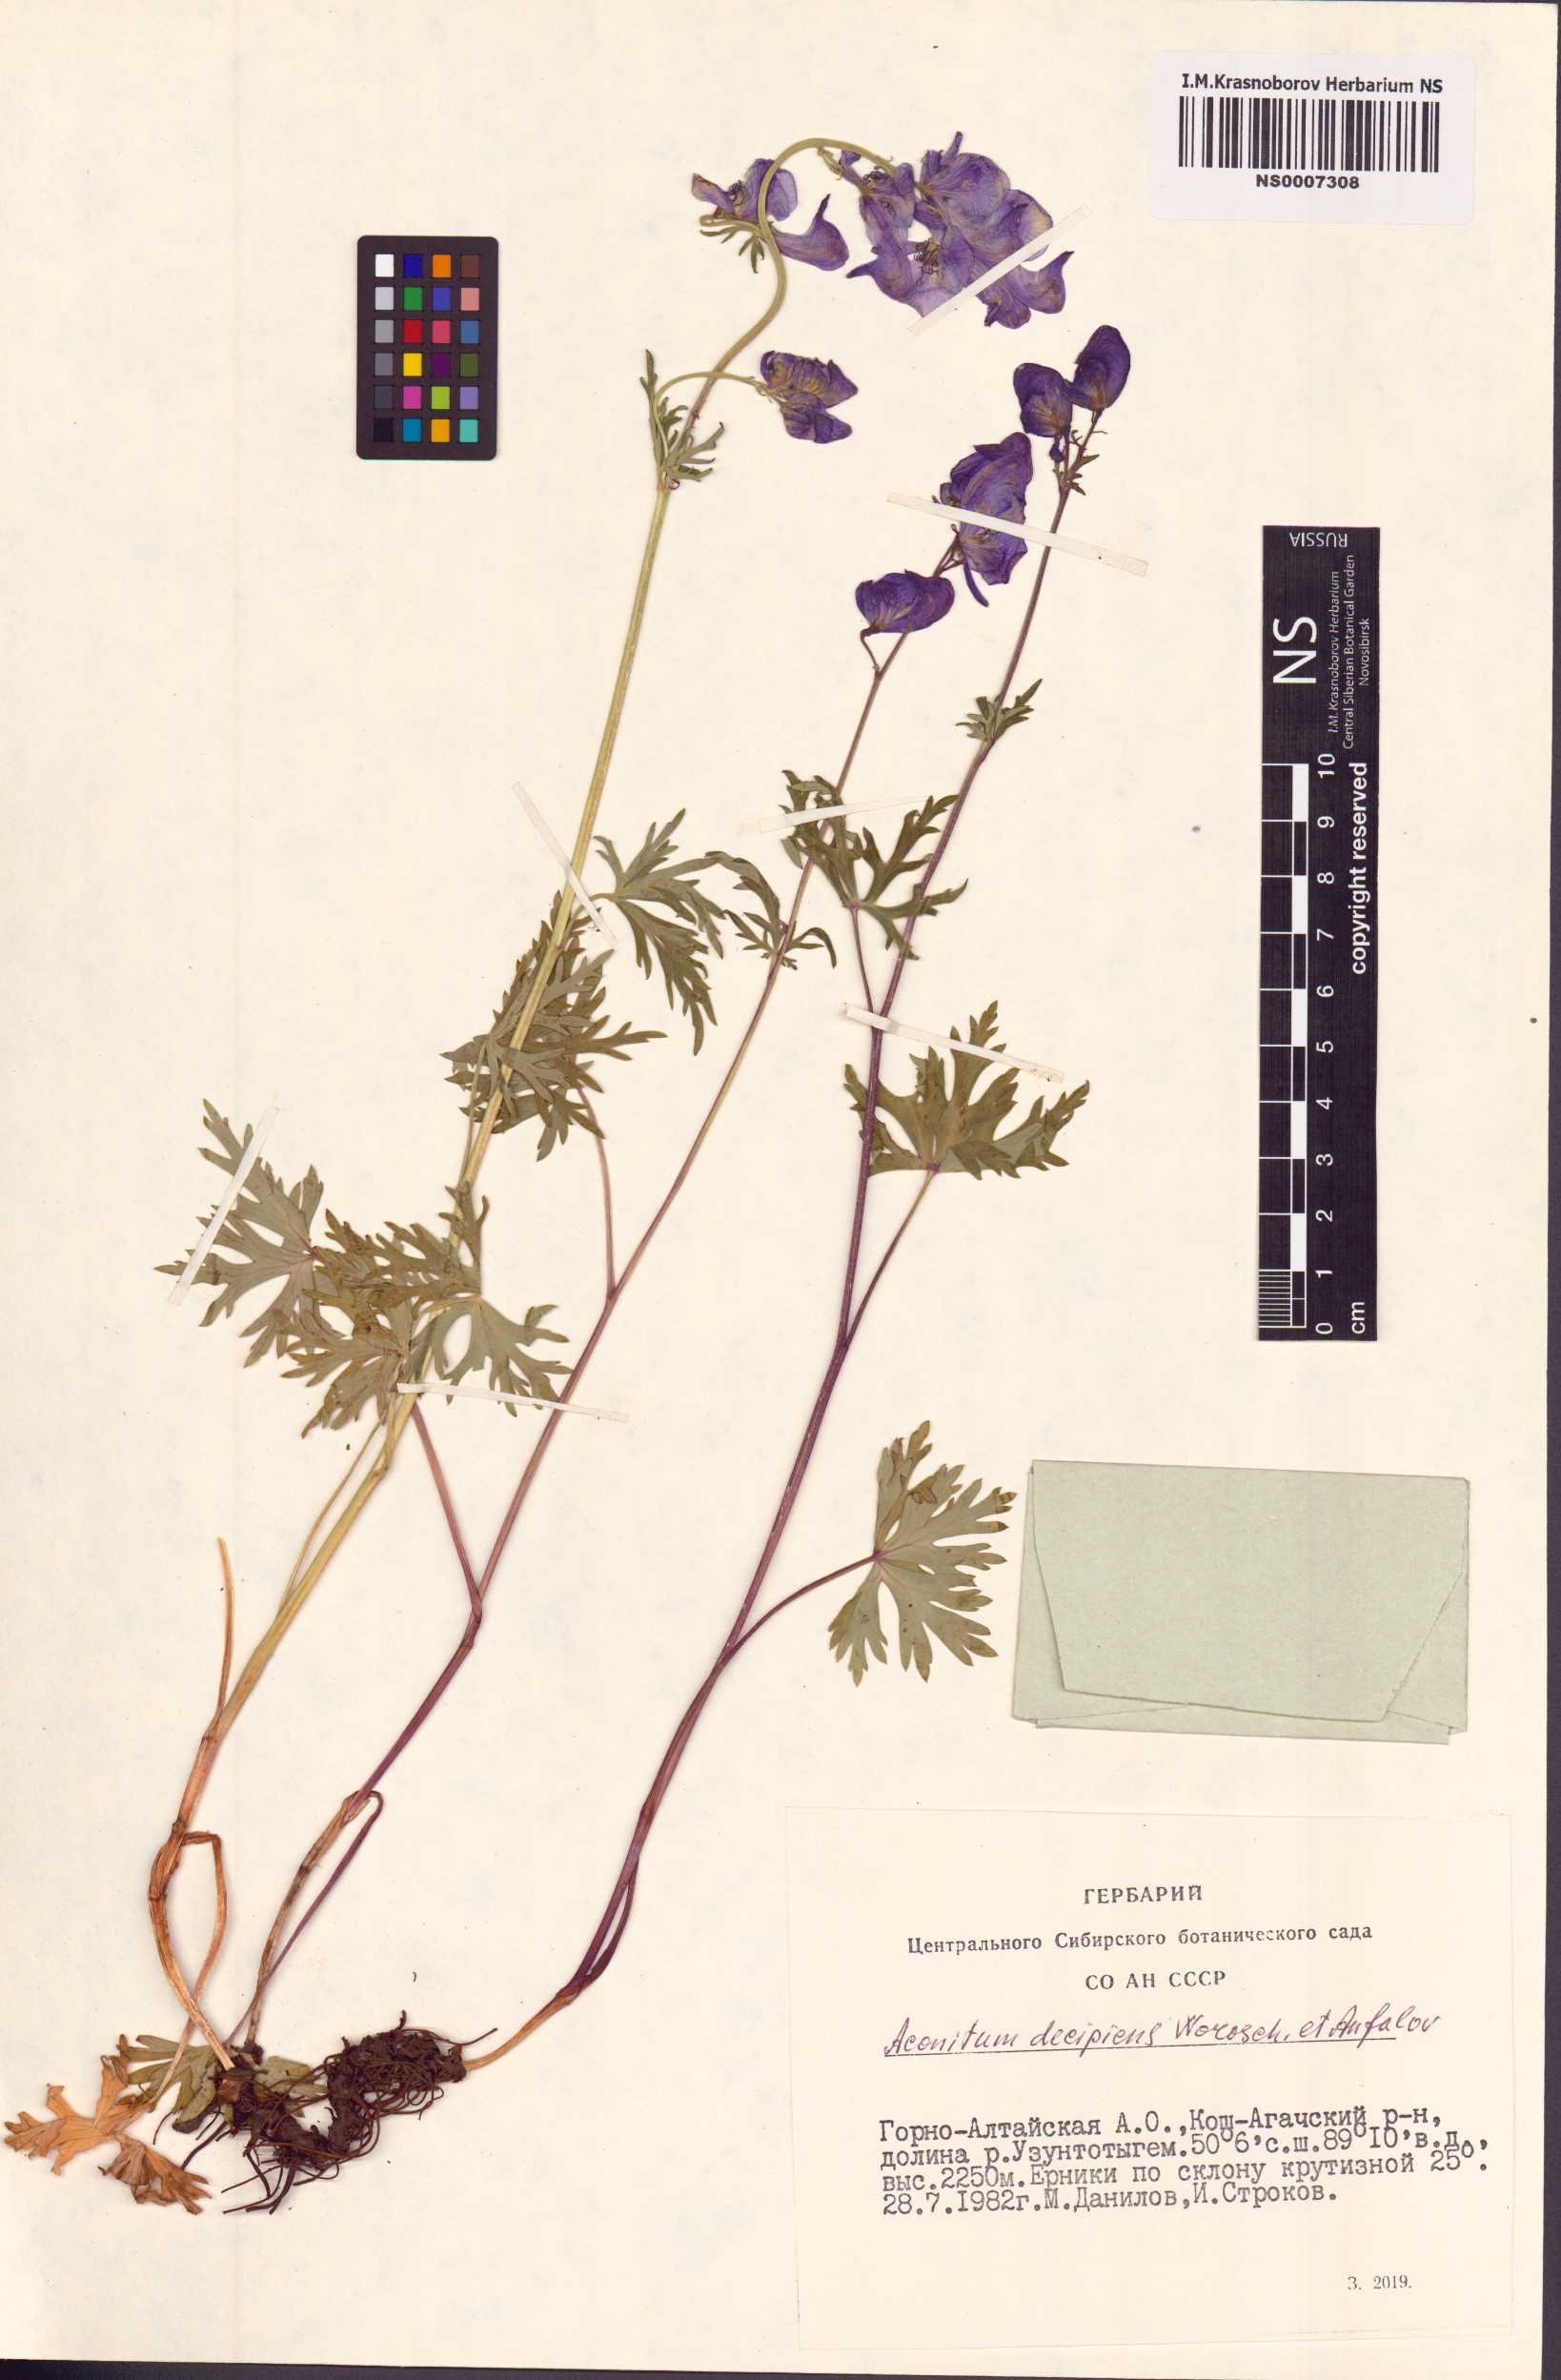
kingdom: Plantae
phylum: Tracheophyta
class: Magnoliopsida
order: Ranunculales
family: Ranunculaceae
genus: Aconitum
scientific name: Aconitum decipiens
